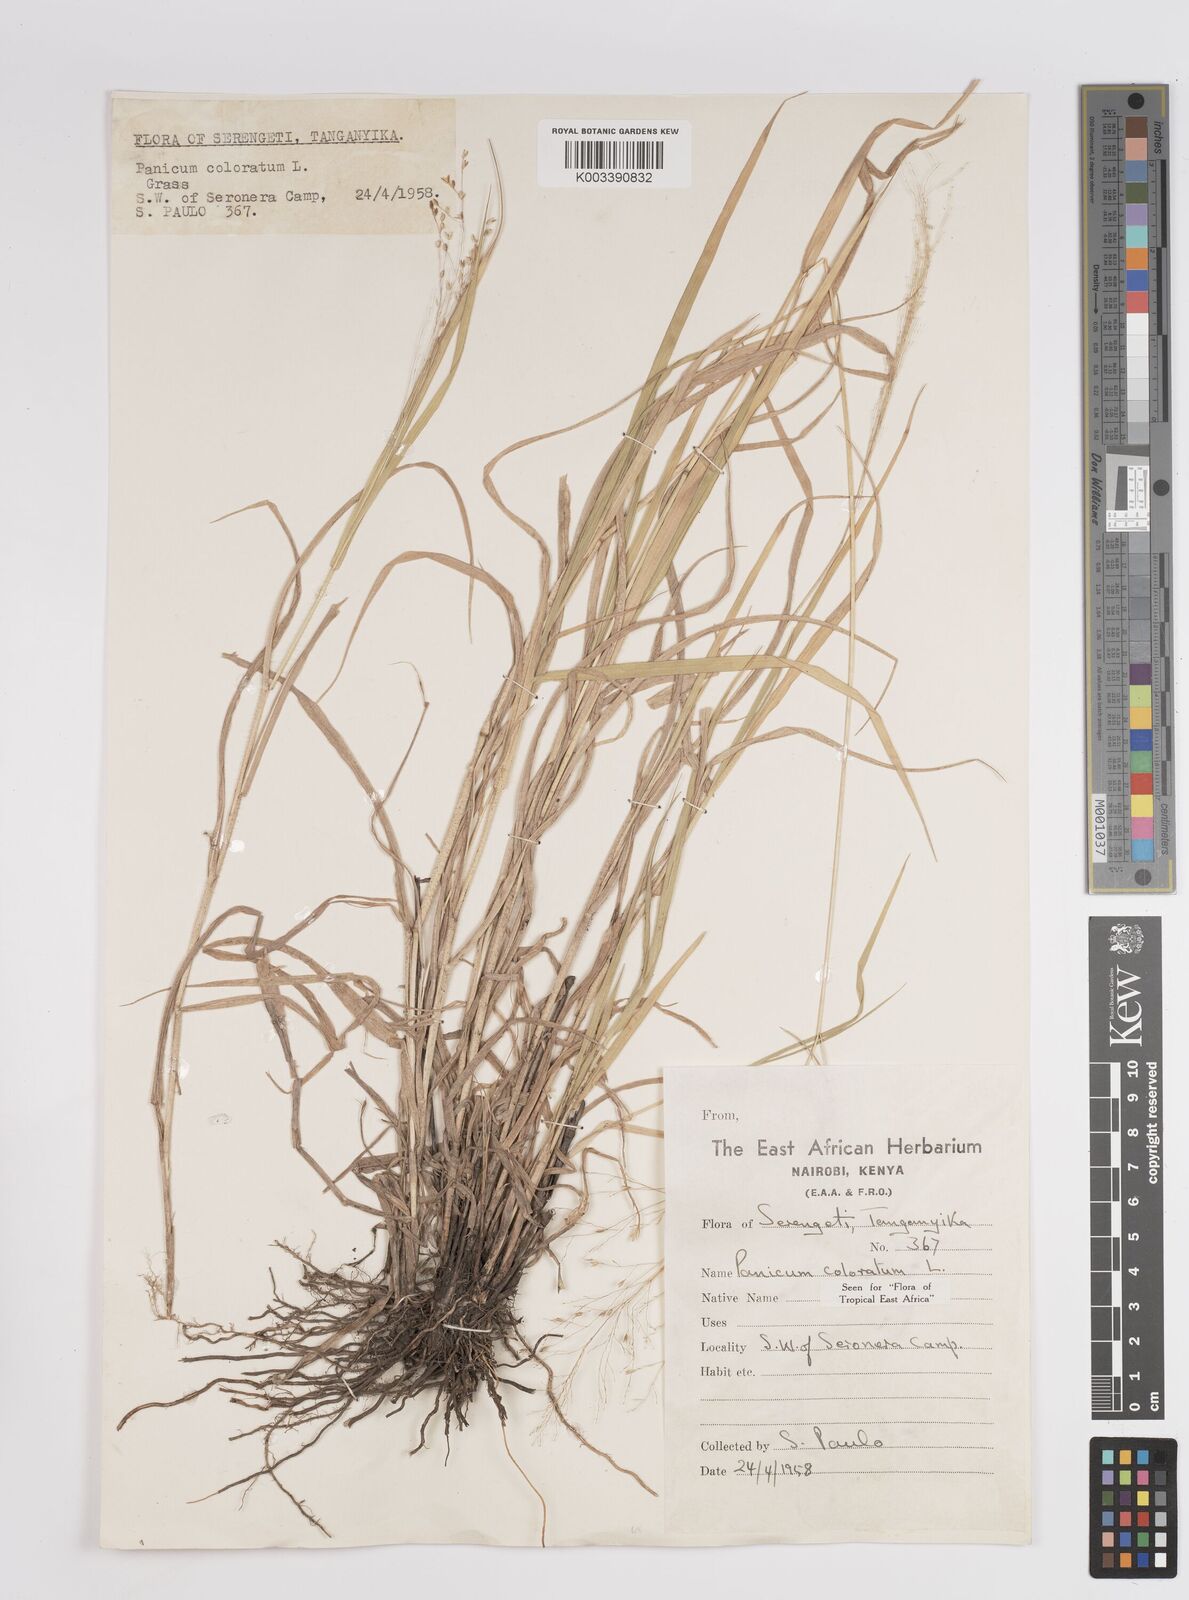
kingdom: Plantae
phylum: Tracheophyta
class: Liliopsida
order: Poales
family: Poaceae
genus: Panicum
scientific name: Panicum coloratum
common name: Kleingrass
